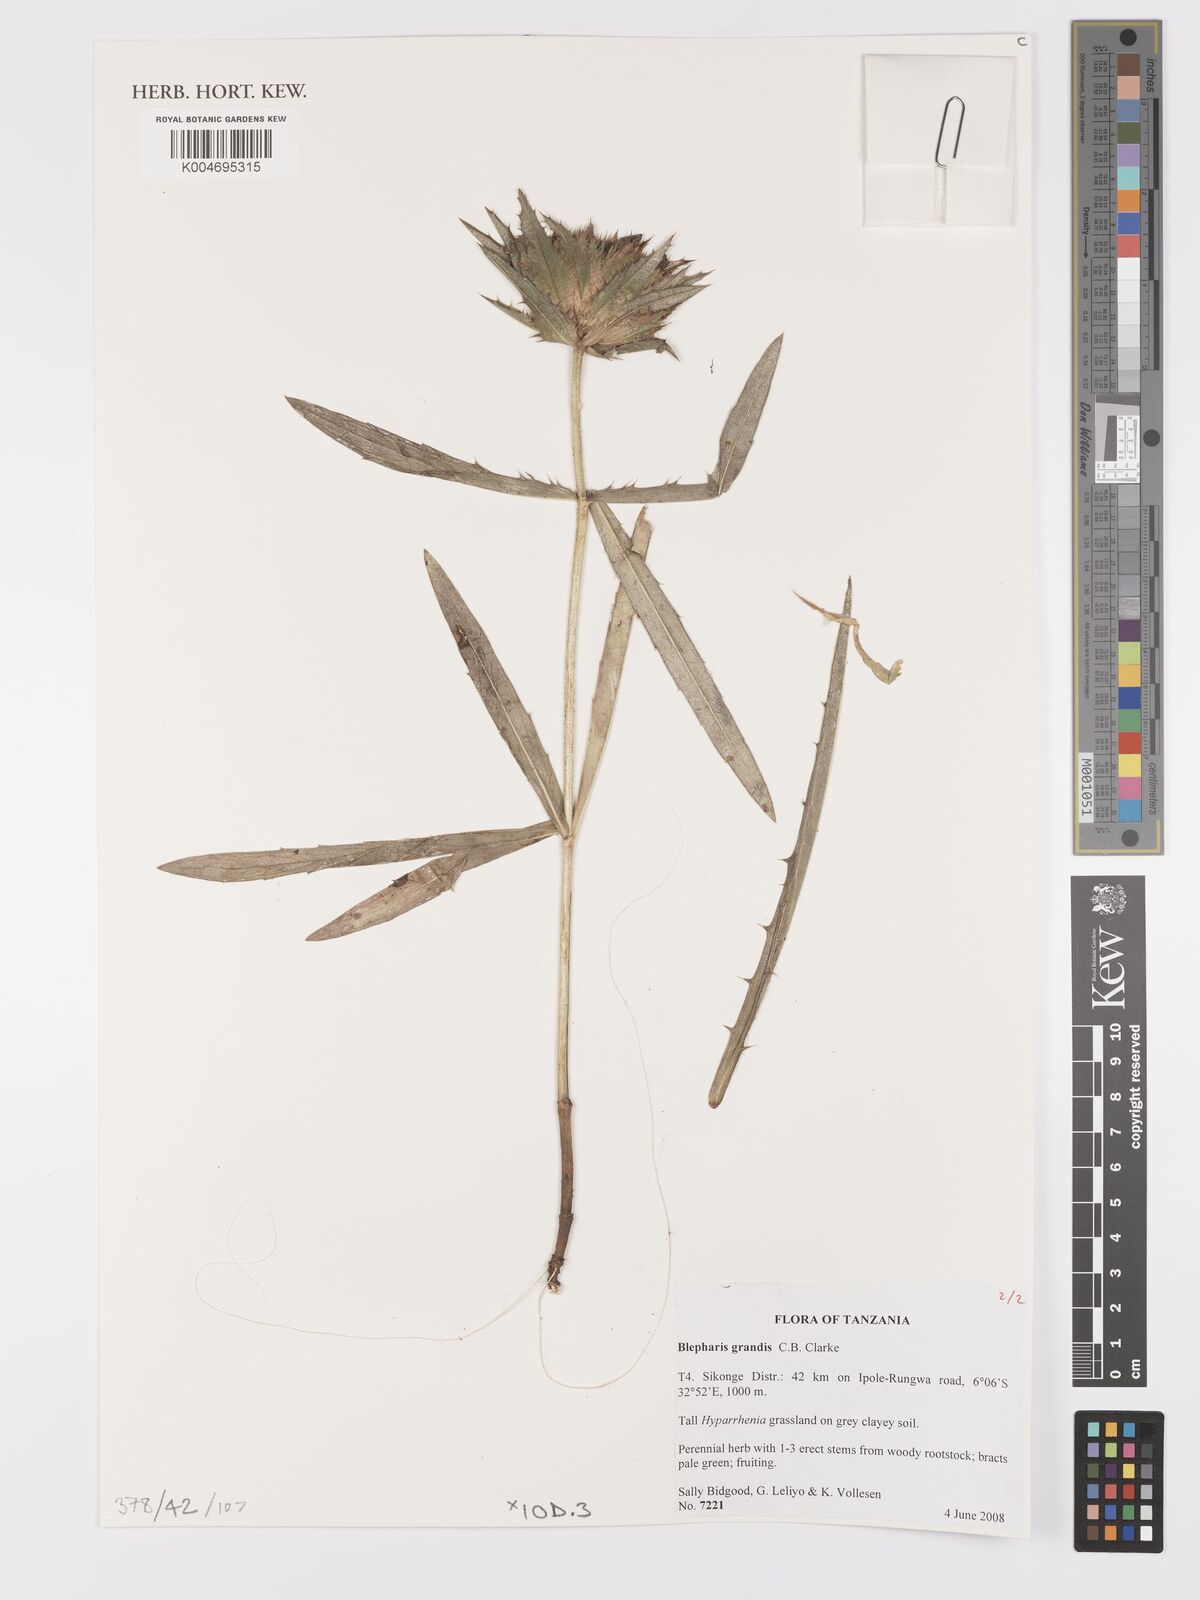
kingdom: Plantae
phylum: Tracheophyta
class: Magnoliopsida
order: Lamiales
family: Acanthaceae
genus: Blepharis
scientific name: Blepharis grandis
